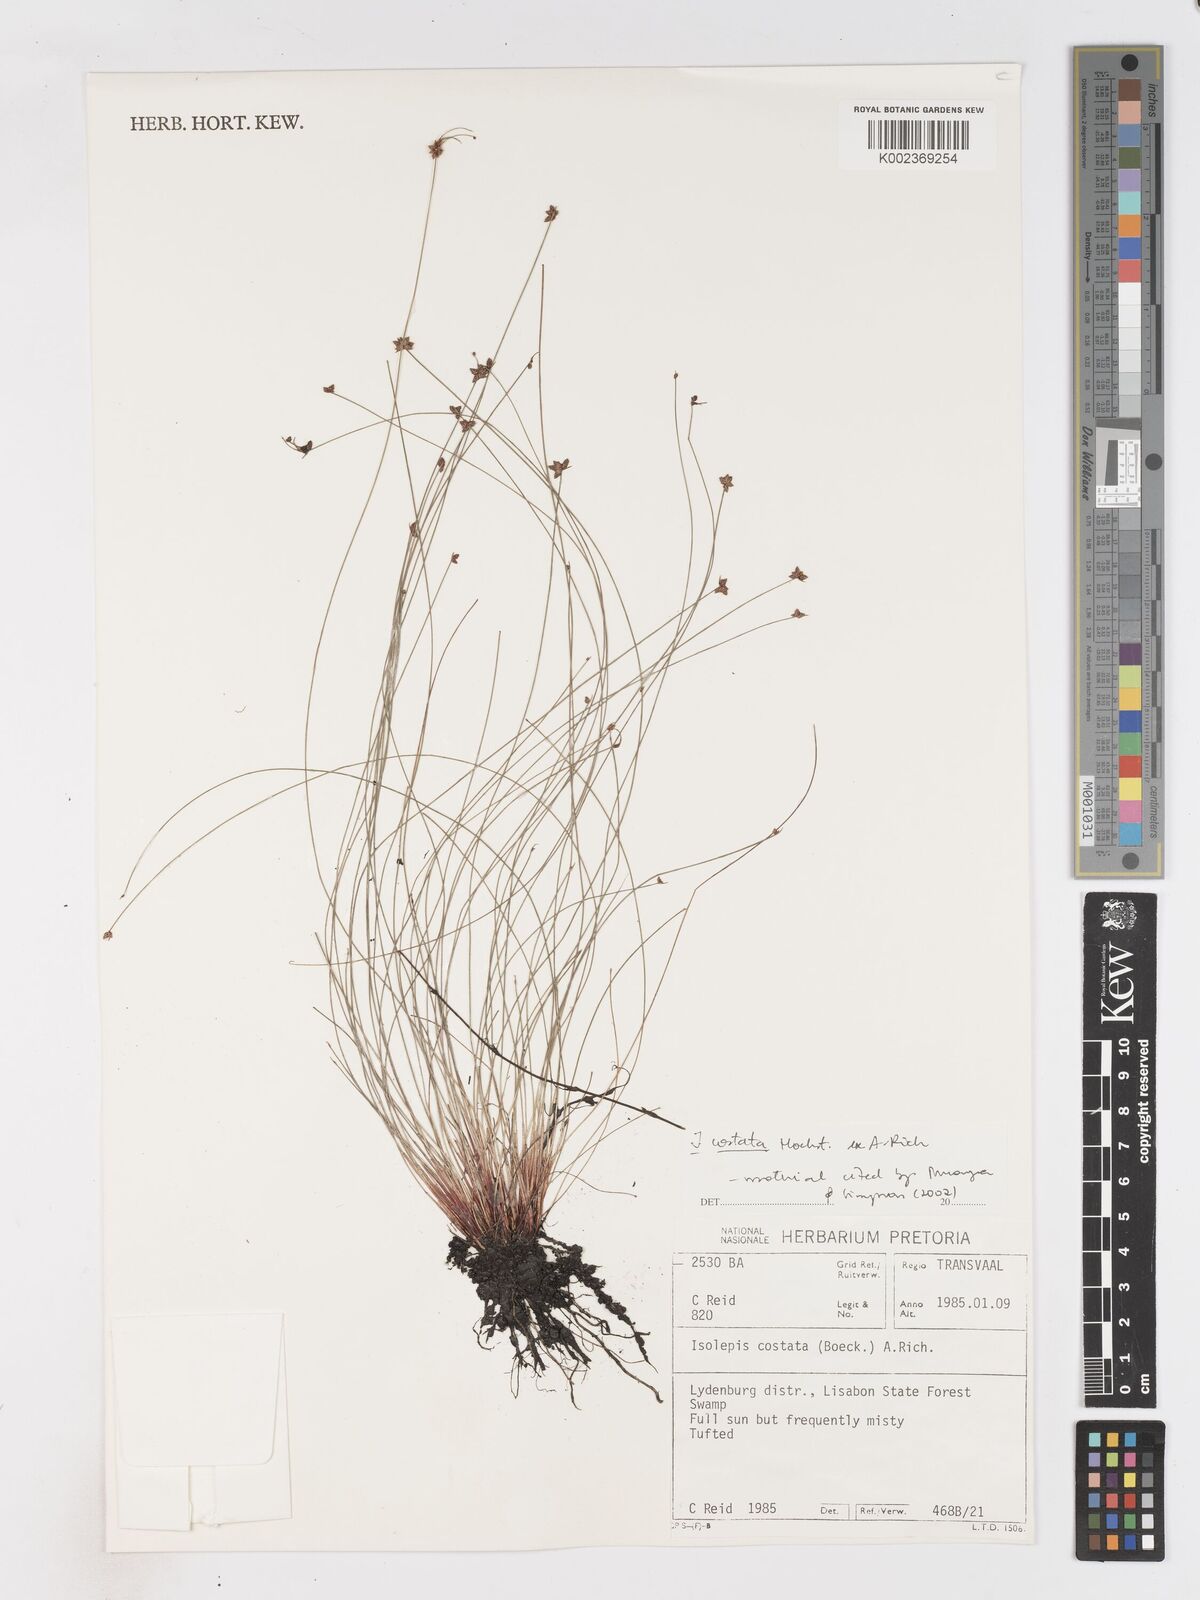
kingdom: Plantae
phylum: Tracheophyta
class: Liliopsida
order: Poales
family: Cyperaceae
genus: Isolepis
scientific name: Isolepis costata
